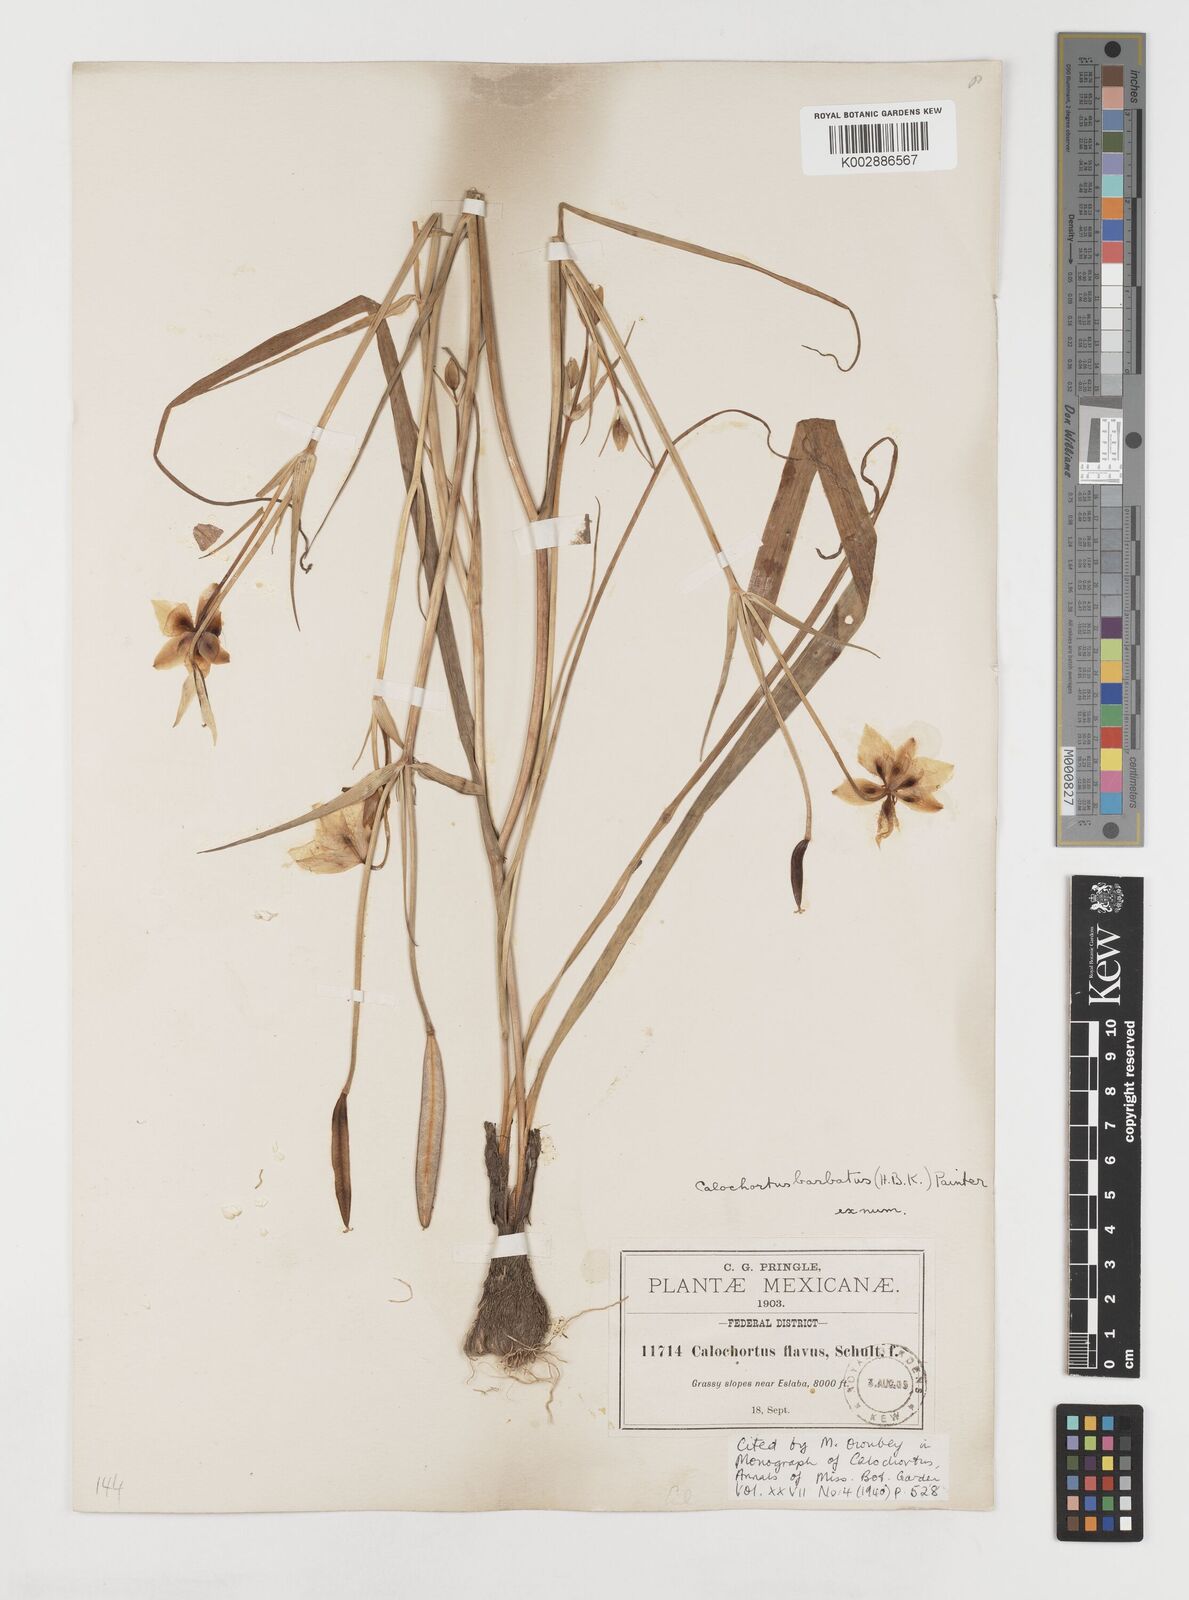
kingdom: Plantae
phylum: Tracheophyta
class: Liliopsida
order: Liliales
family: Liliaceae
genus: Calochortus
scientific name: Calochortus barbatus
